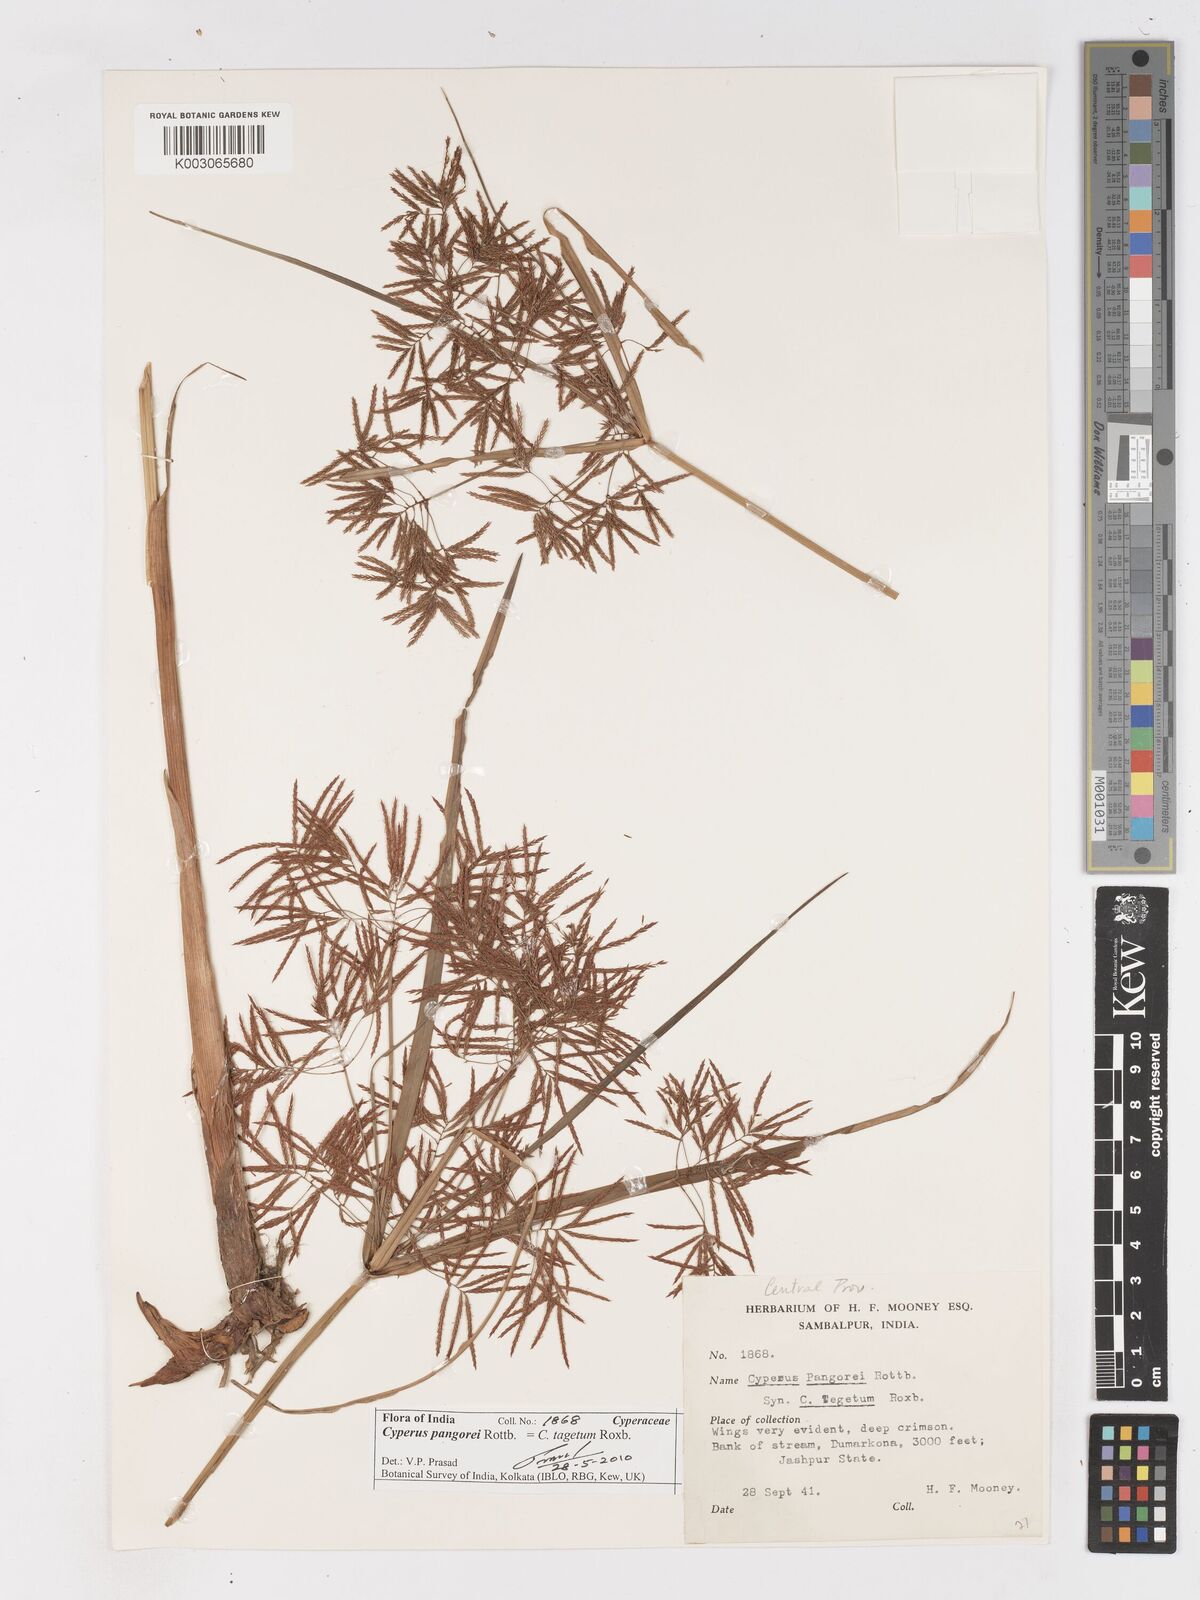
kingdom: Plantae
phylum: Tracheophyta
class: Liliopsida
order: Poales
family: Cyperaceae
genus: Cyperus
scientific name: Cyperus pangorei
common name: Mat sedge
